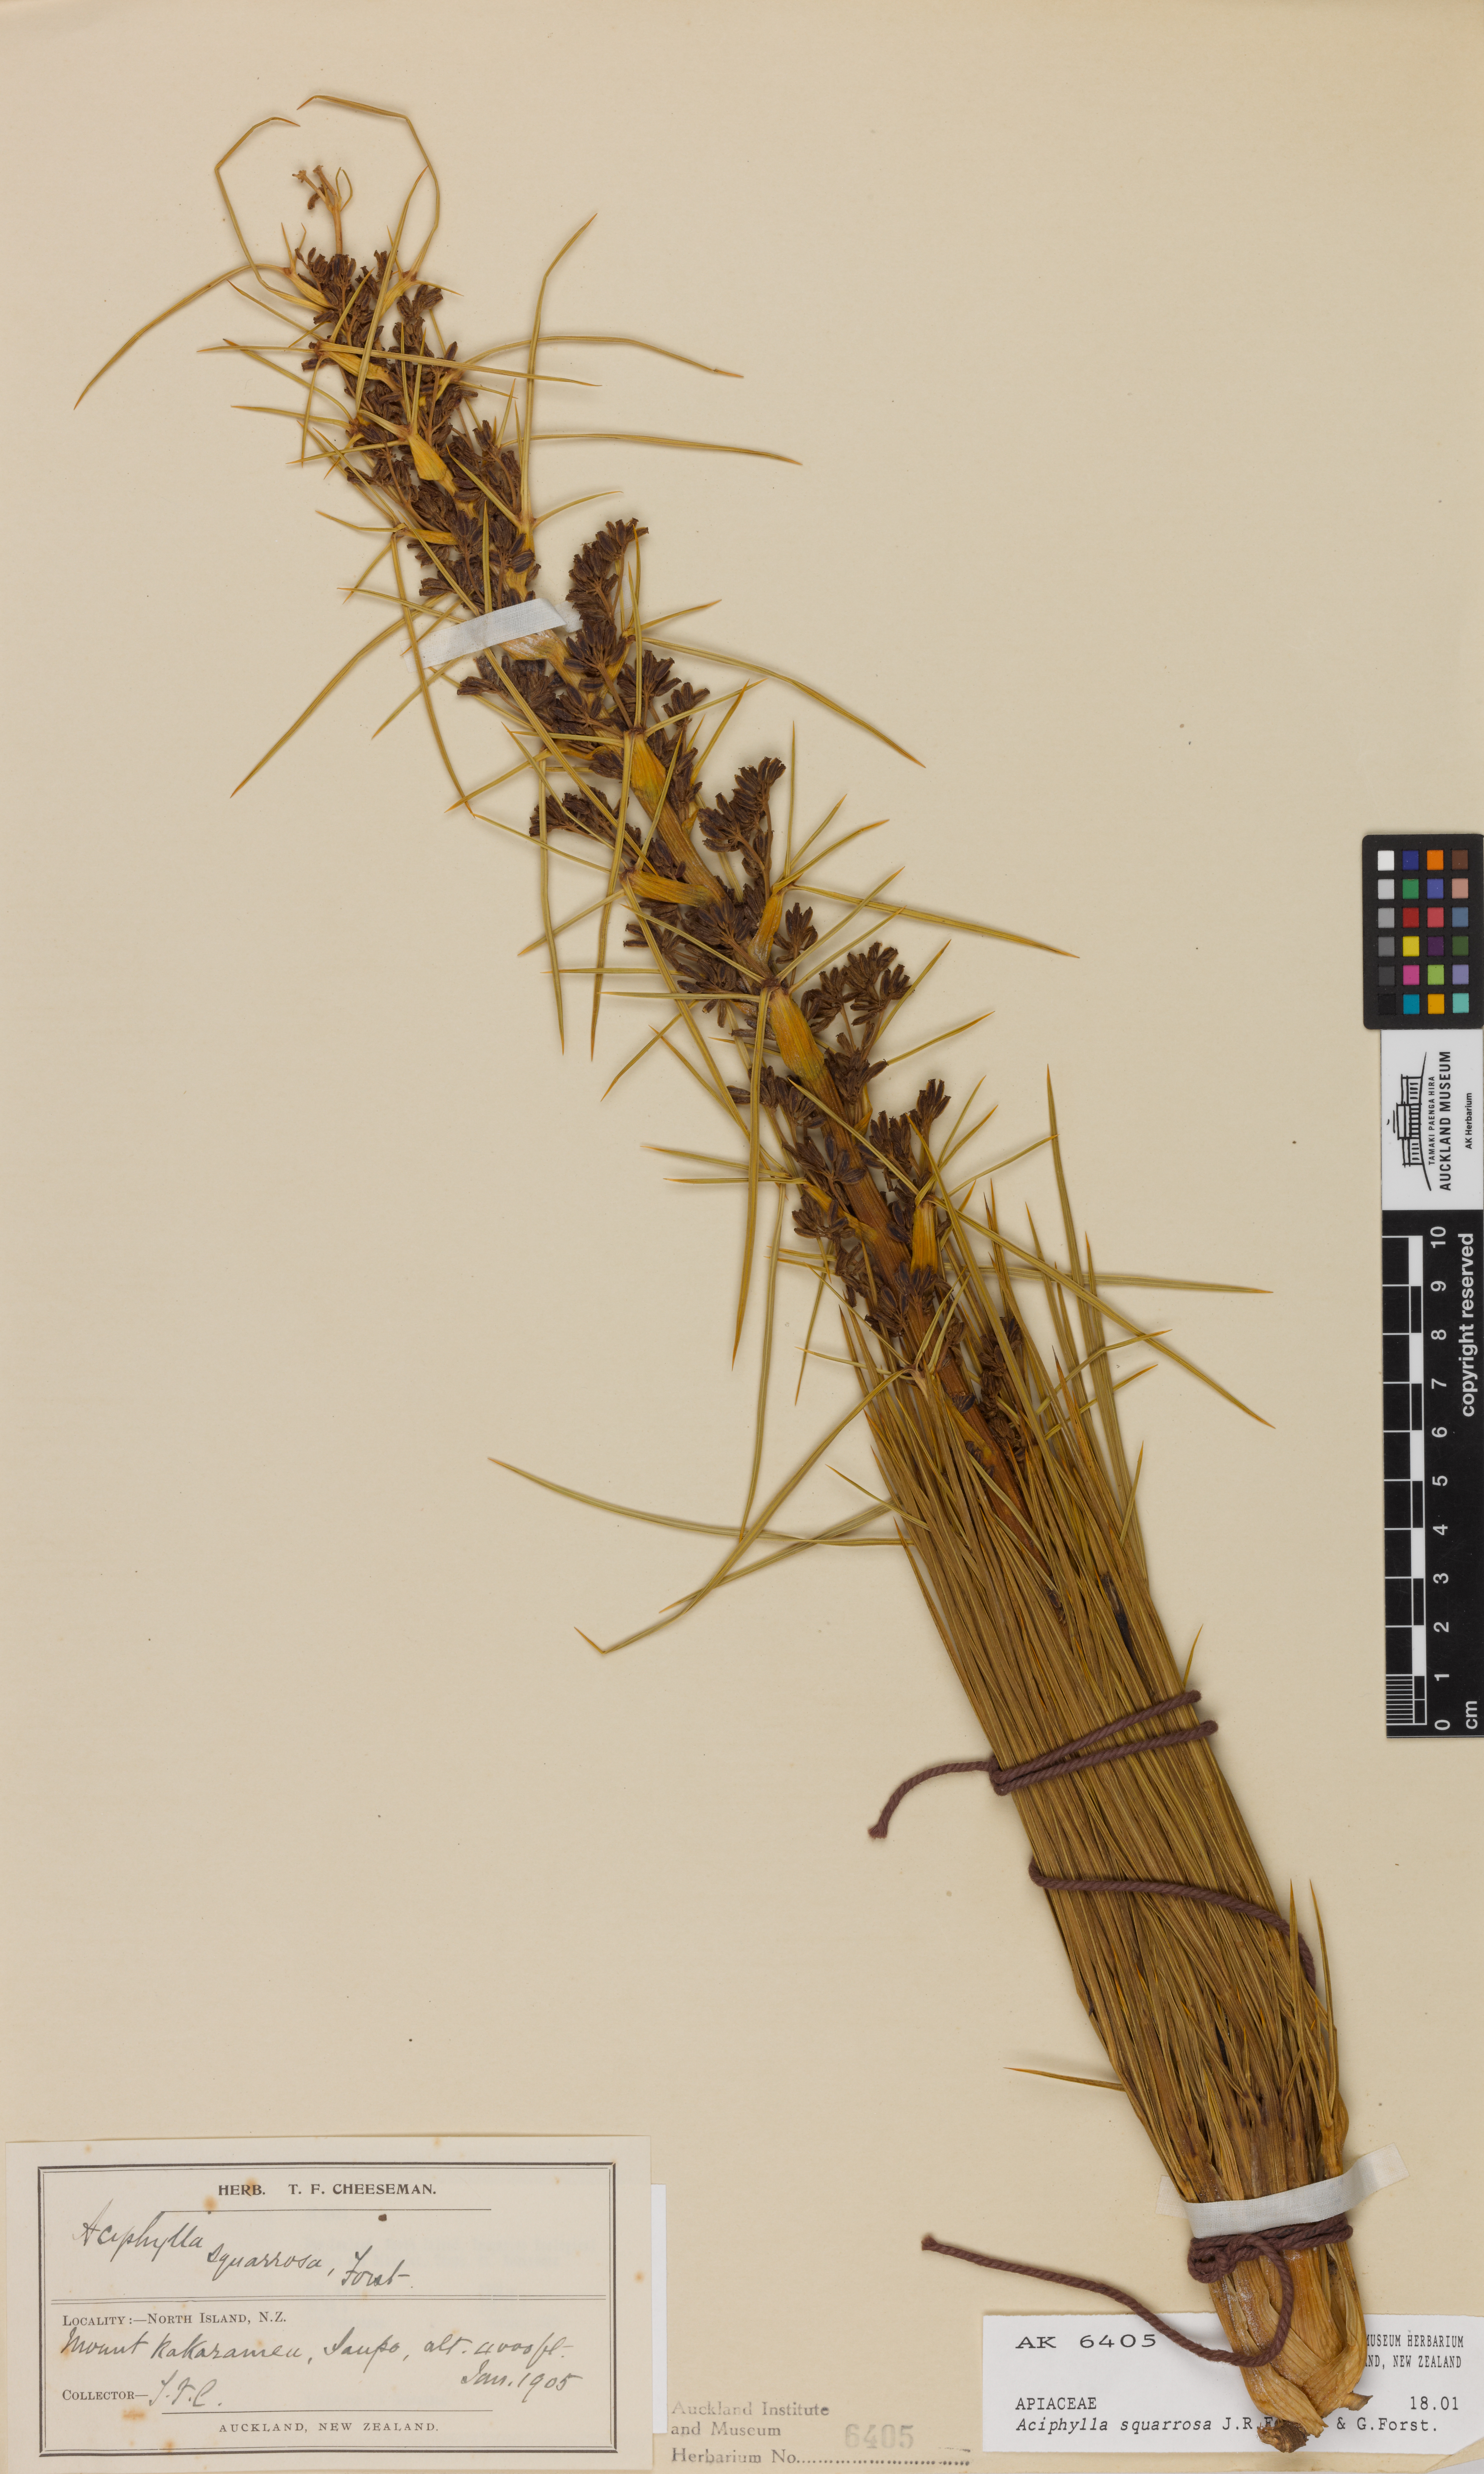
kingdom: Plantae
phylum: Tracheophyta
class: Magnoliopsida
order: Apiales
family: Apiaceae
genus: Aciphylla
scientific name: Aciphylla squarrosa
